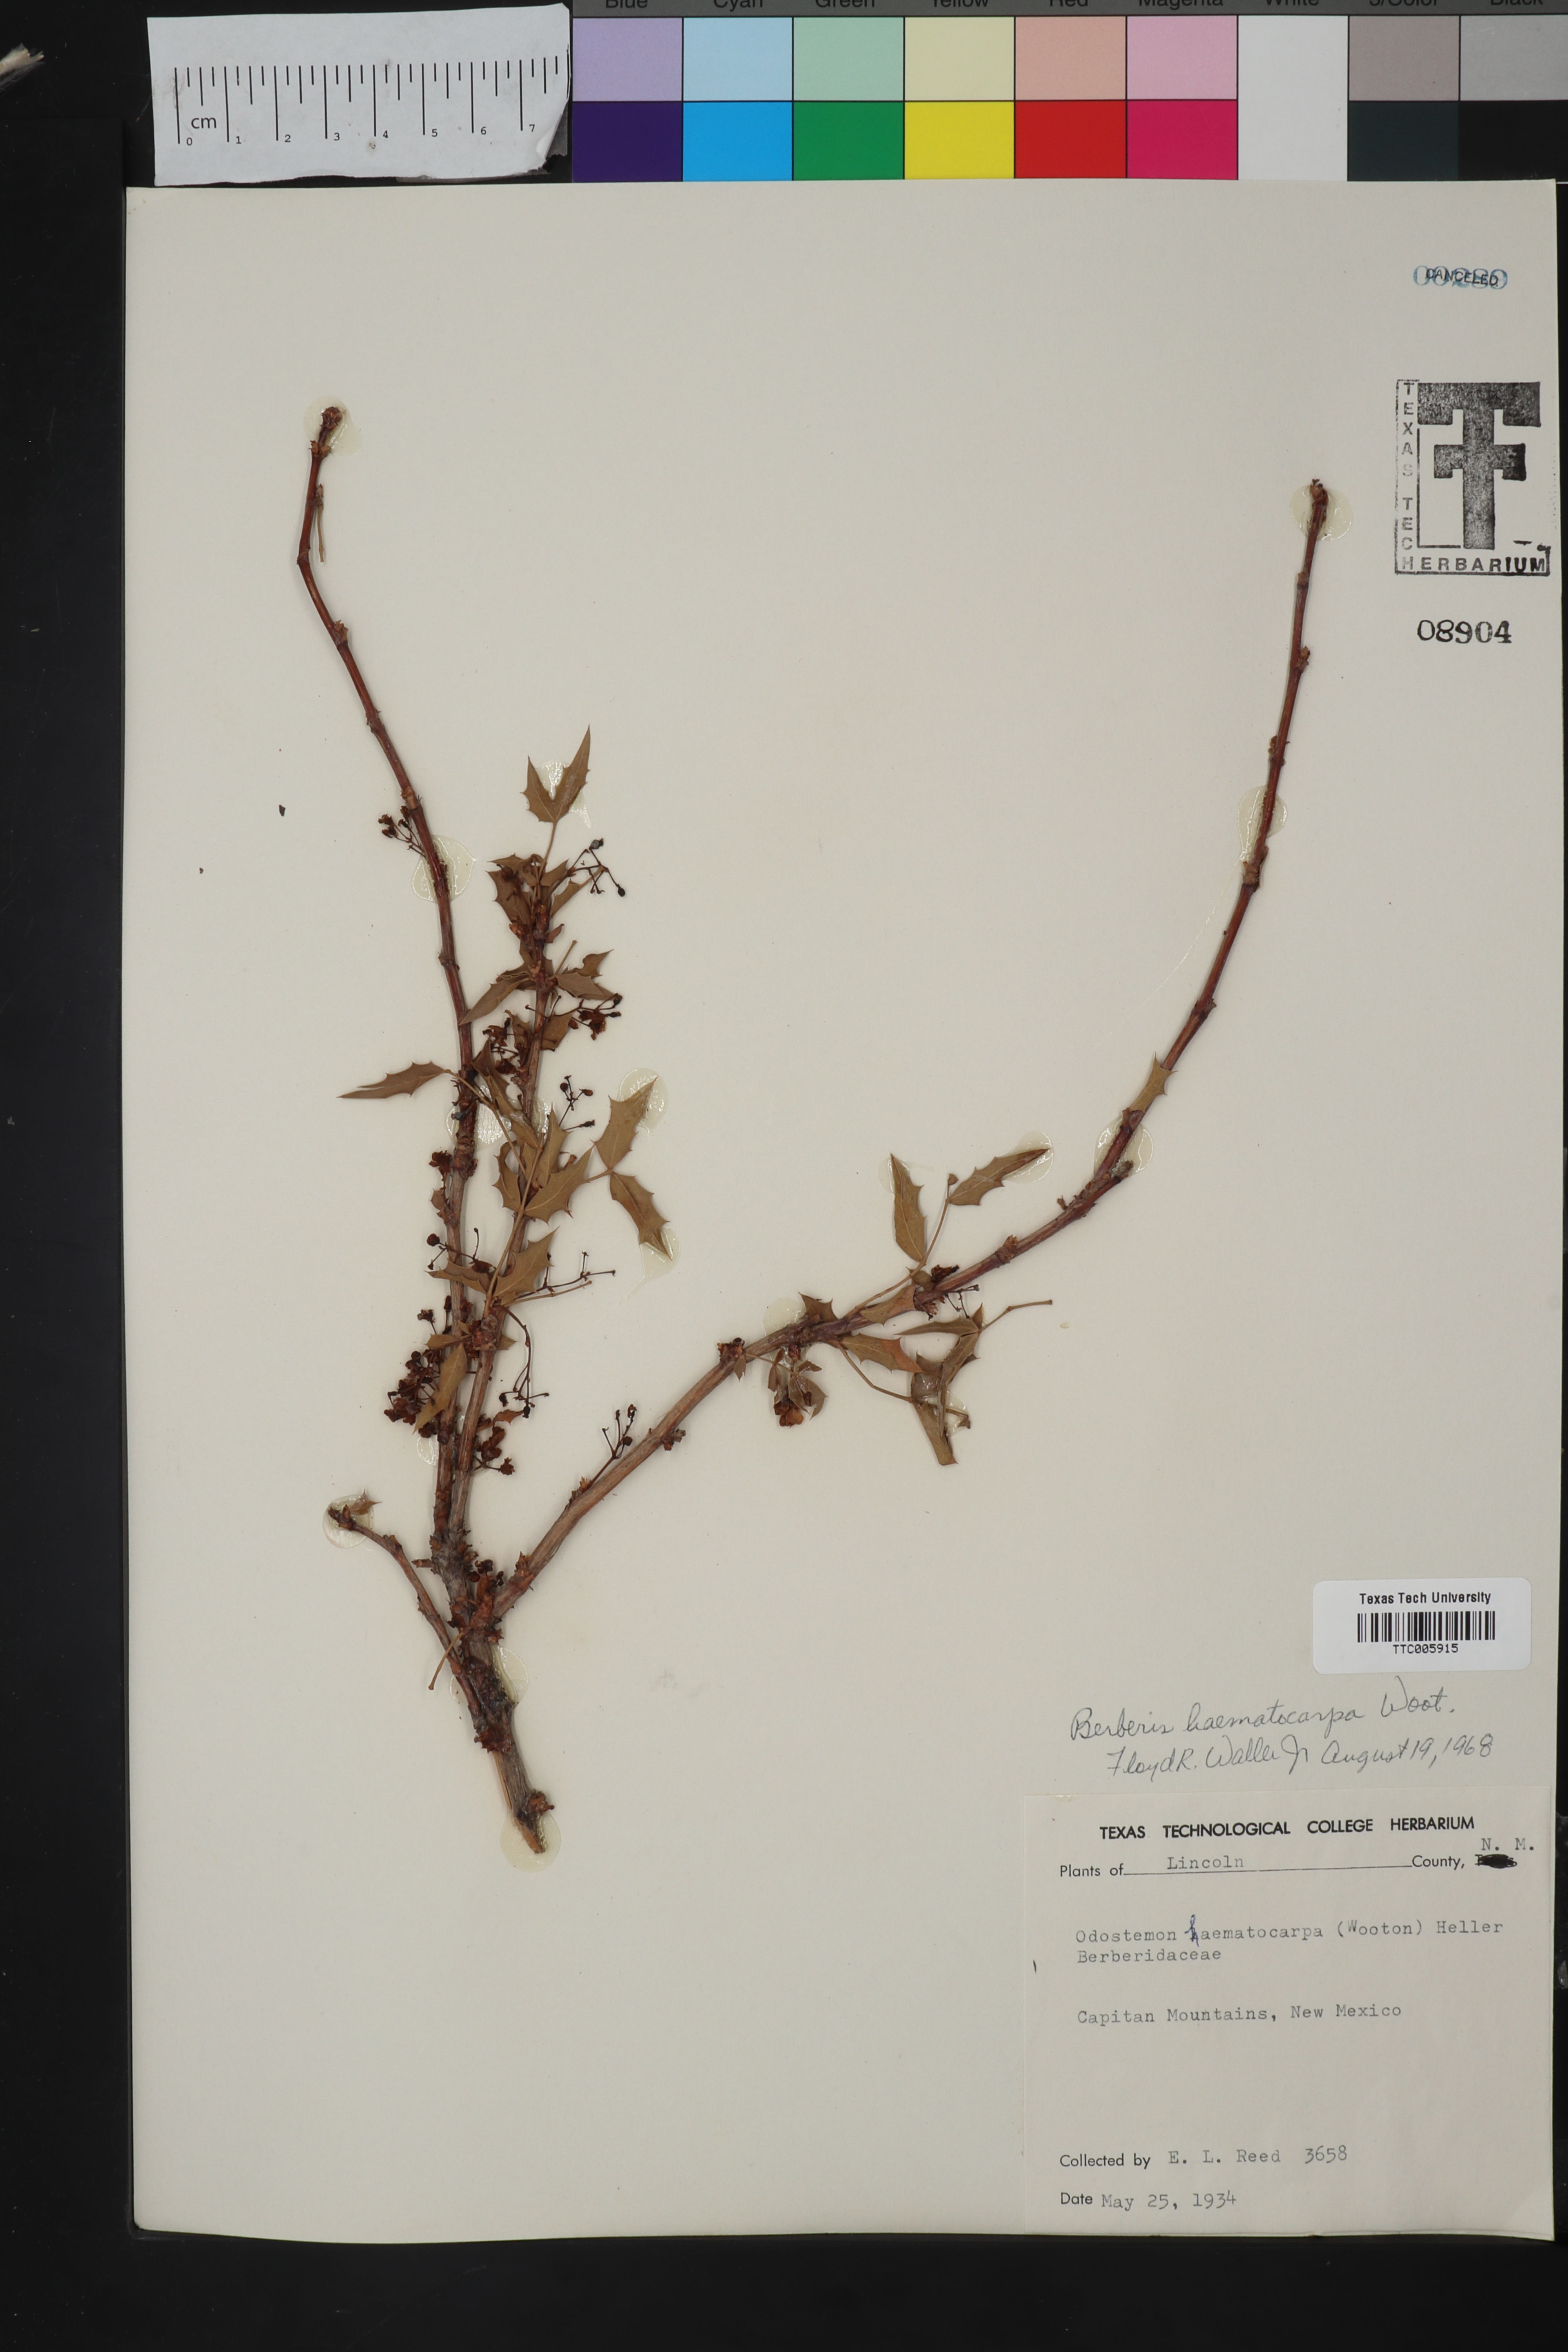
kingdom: Plantae
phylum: Tracheophyta
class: Magnoliopsida
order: Ranunculales
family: Berberidaceae
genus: Alloberberis
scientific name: Alloberberis haematocarpa
